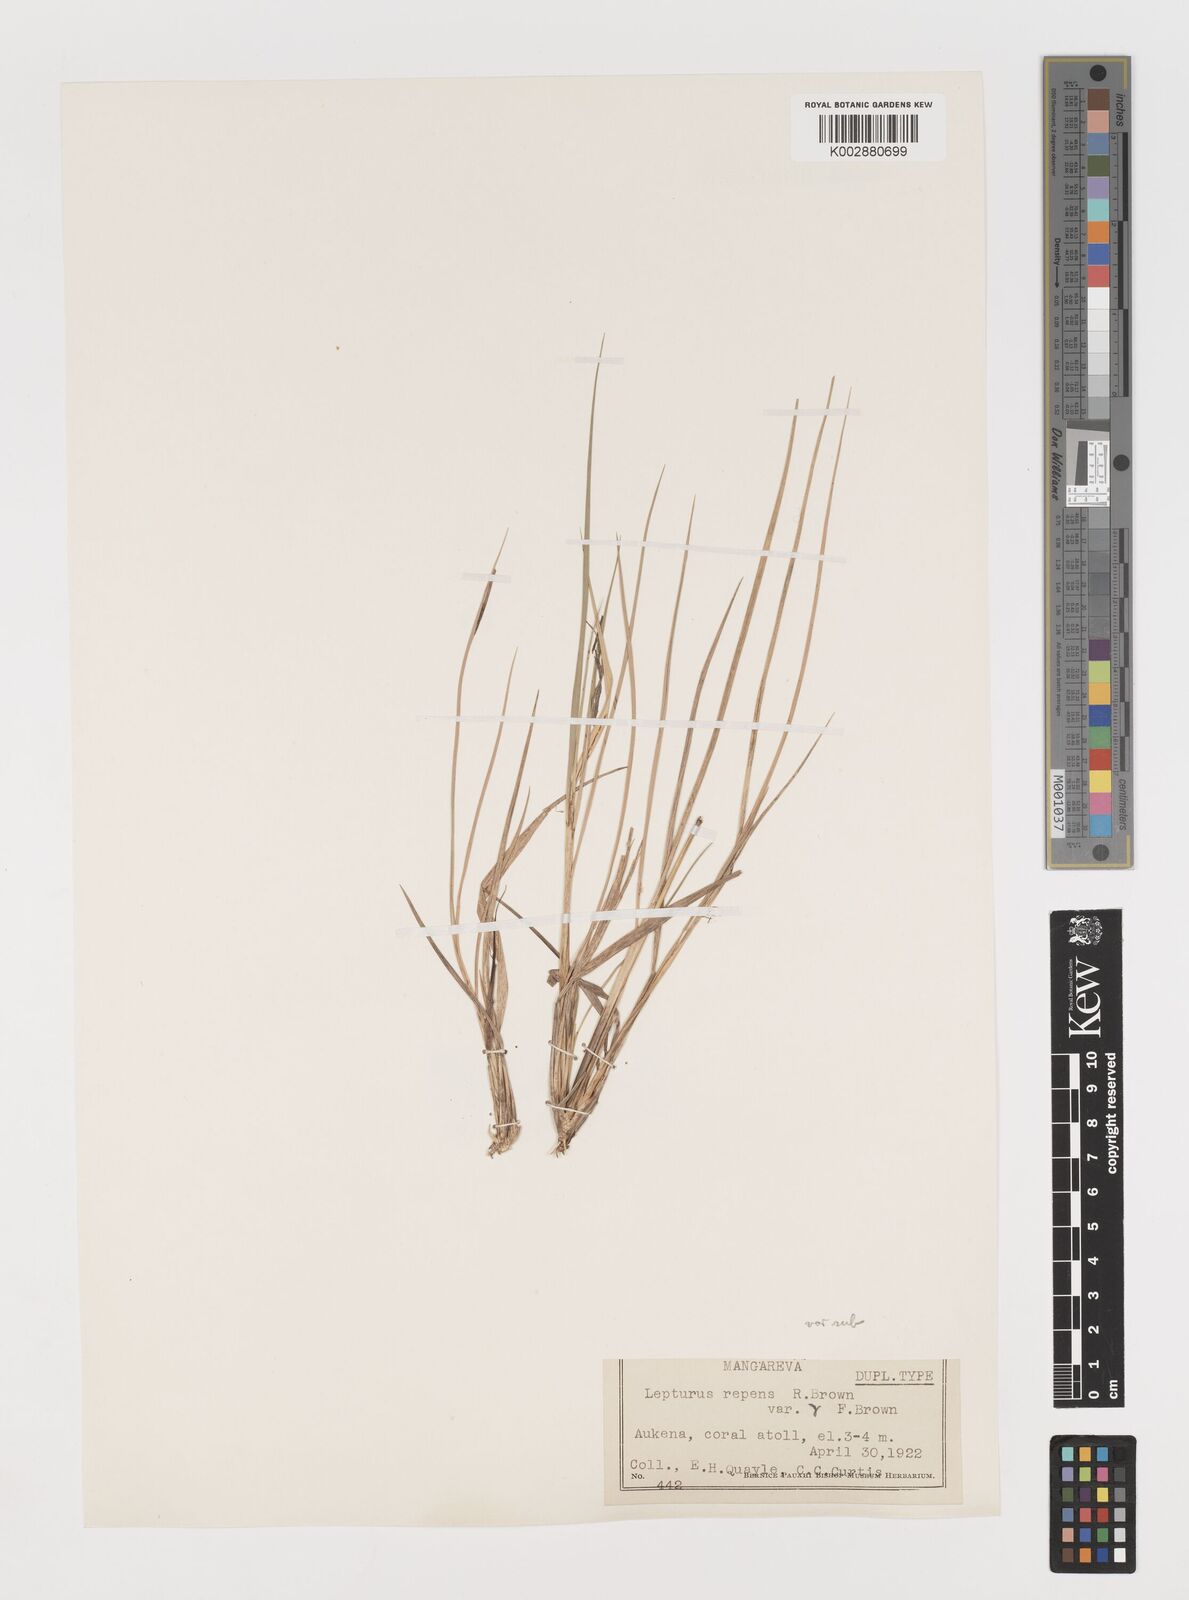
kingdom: Plantae
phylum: Tracheophyta
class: Liliopsida
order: Poales
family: Poaceae
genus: Lepturus
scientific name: Lepturus repens
